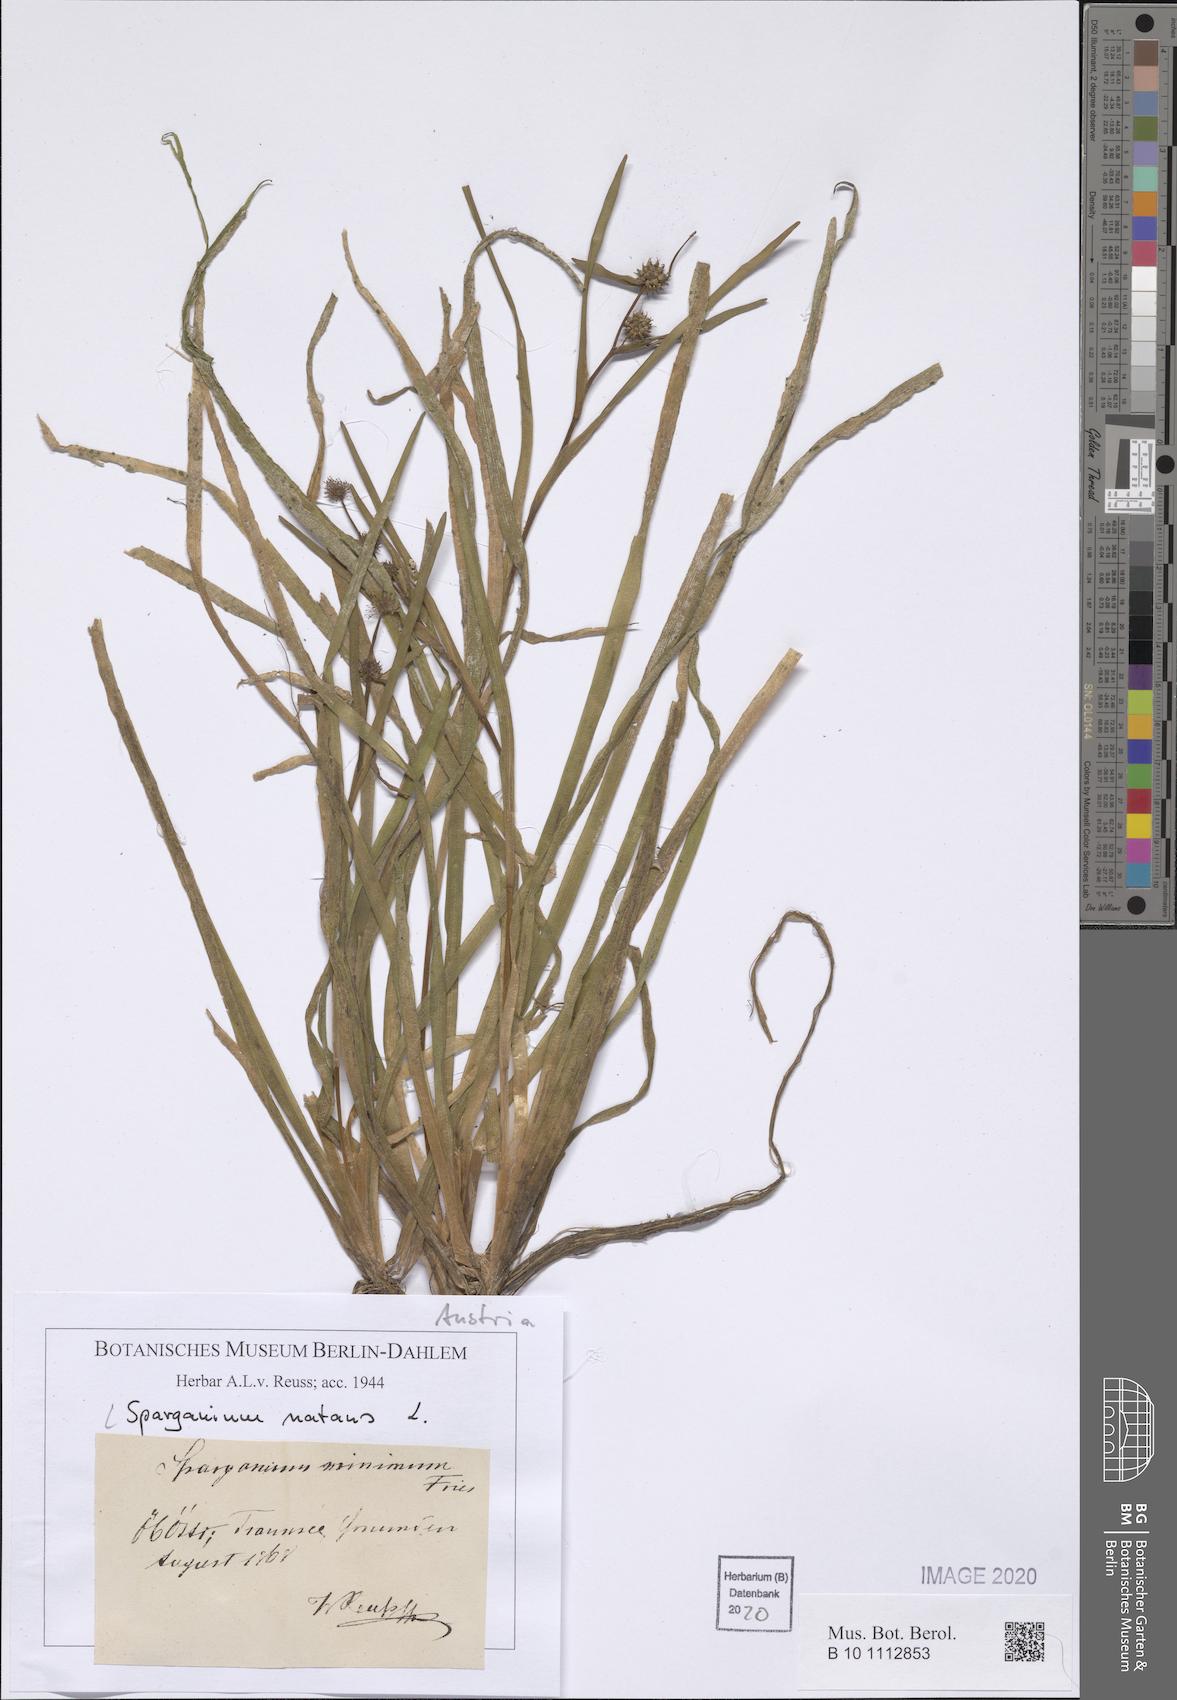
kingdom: Plantae
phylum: Tracheophyta
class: Liliopsida
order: Poales
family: Typhaceae
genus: Sparganium
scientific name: Sparganium natans
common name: Least bur-reed
